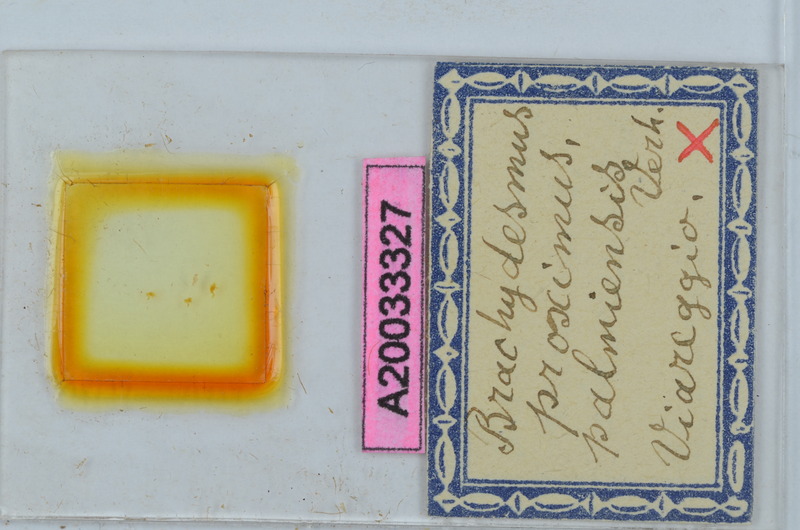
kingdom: Animalia
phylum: Arthropoda
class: Diplopoda
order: Polydesmida
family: Polydesmidae
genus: Brachydesmus
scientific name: Brachydesmus proximus
